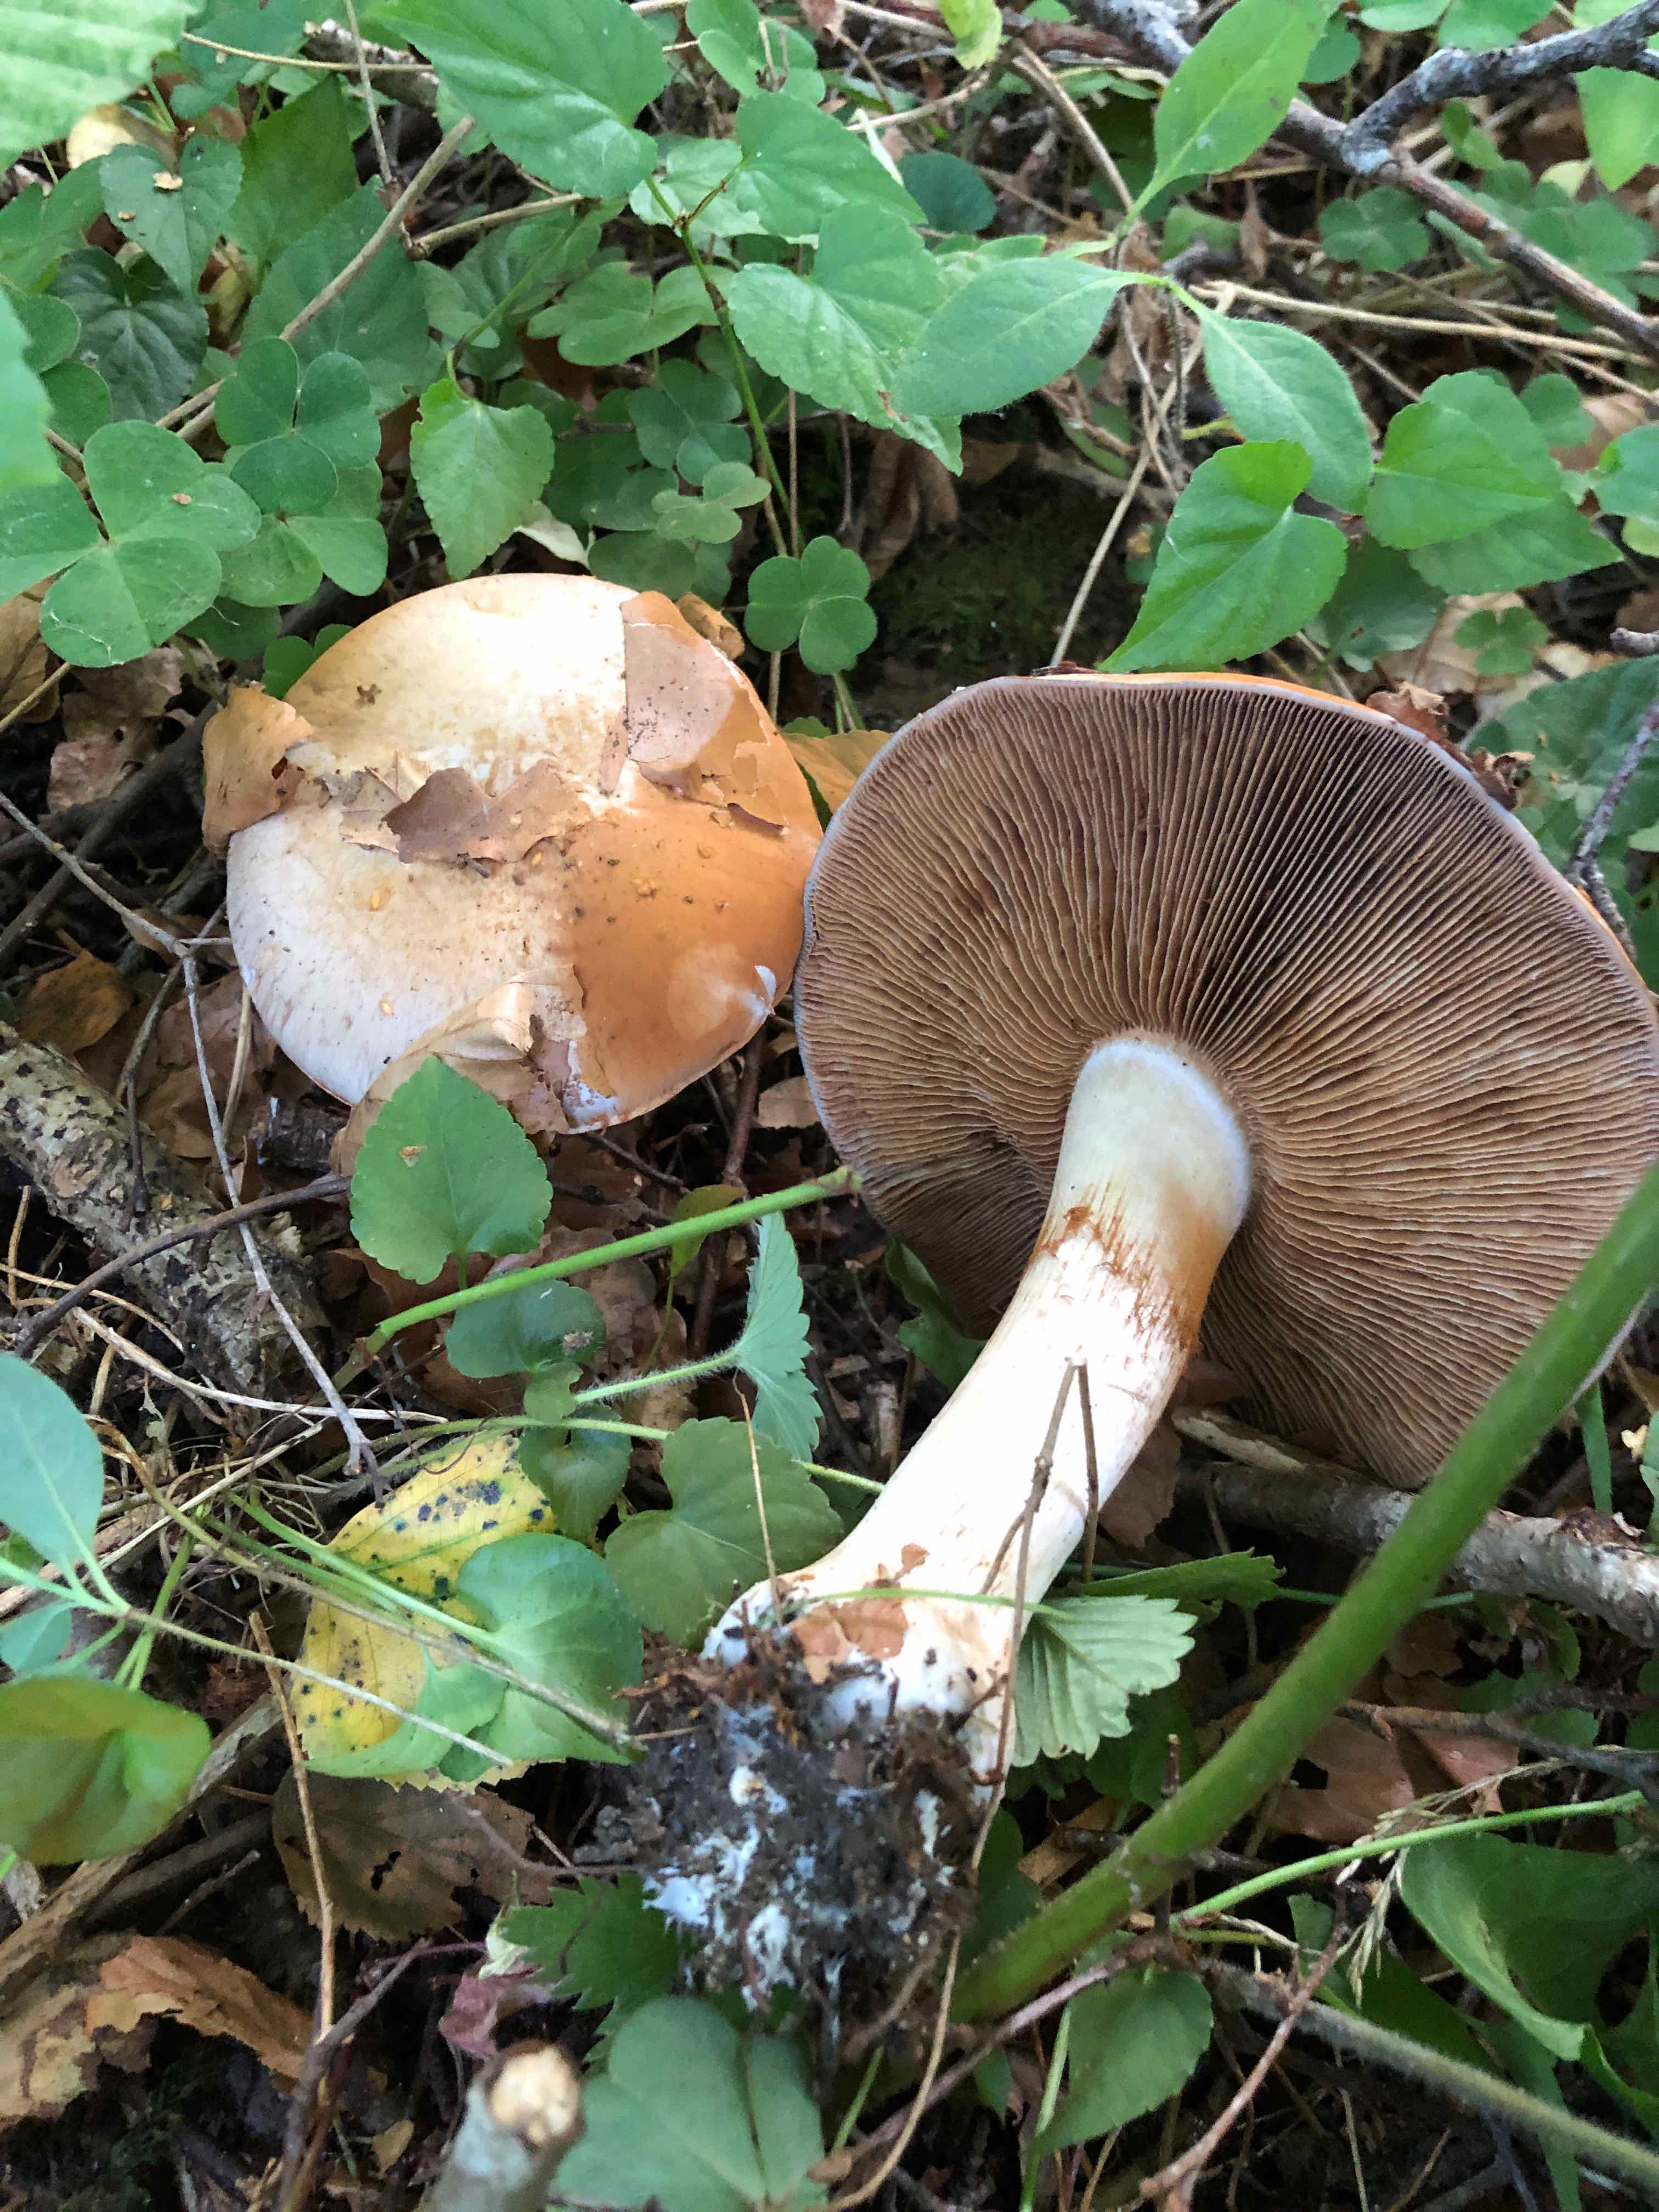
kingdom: Fungi
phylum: Basidiomycota
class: Agaricomycetes
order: Agaricales
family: Cortinariaceae
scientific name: Cortinariaceae
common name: slørhatfamilien
